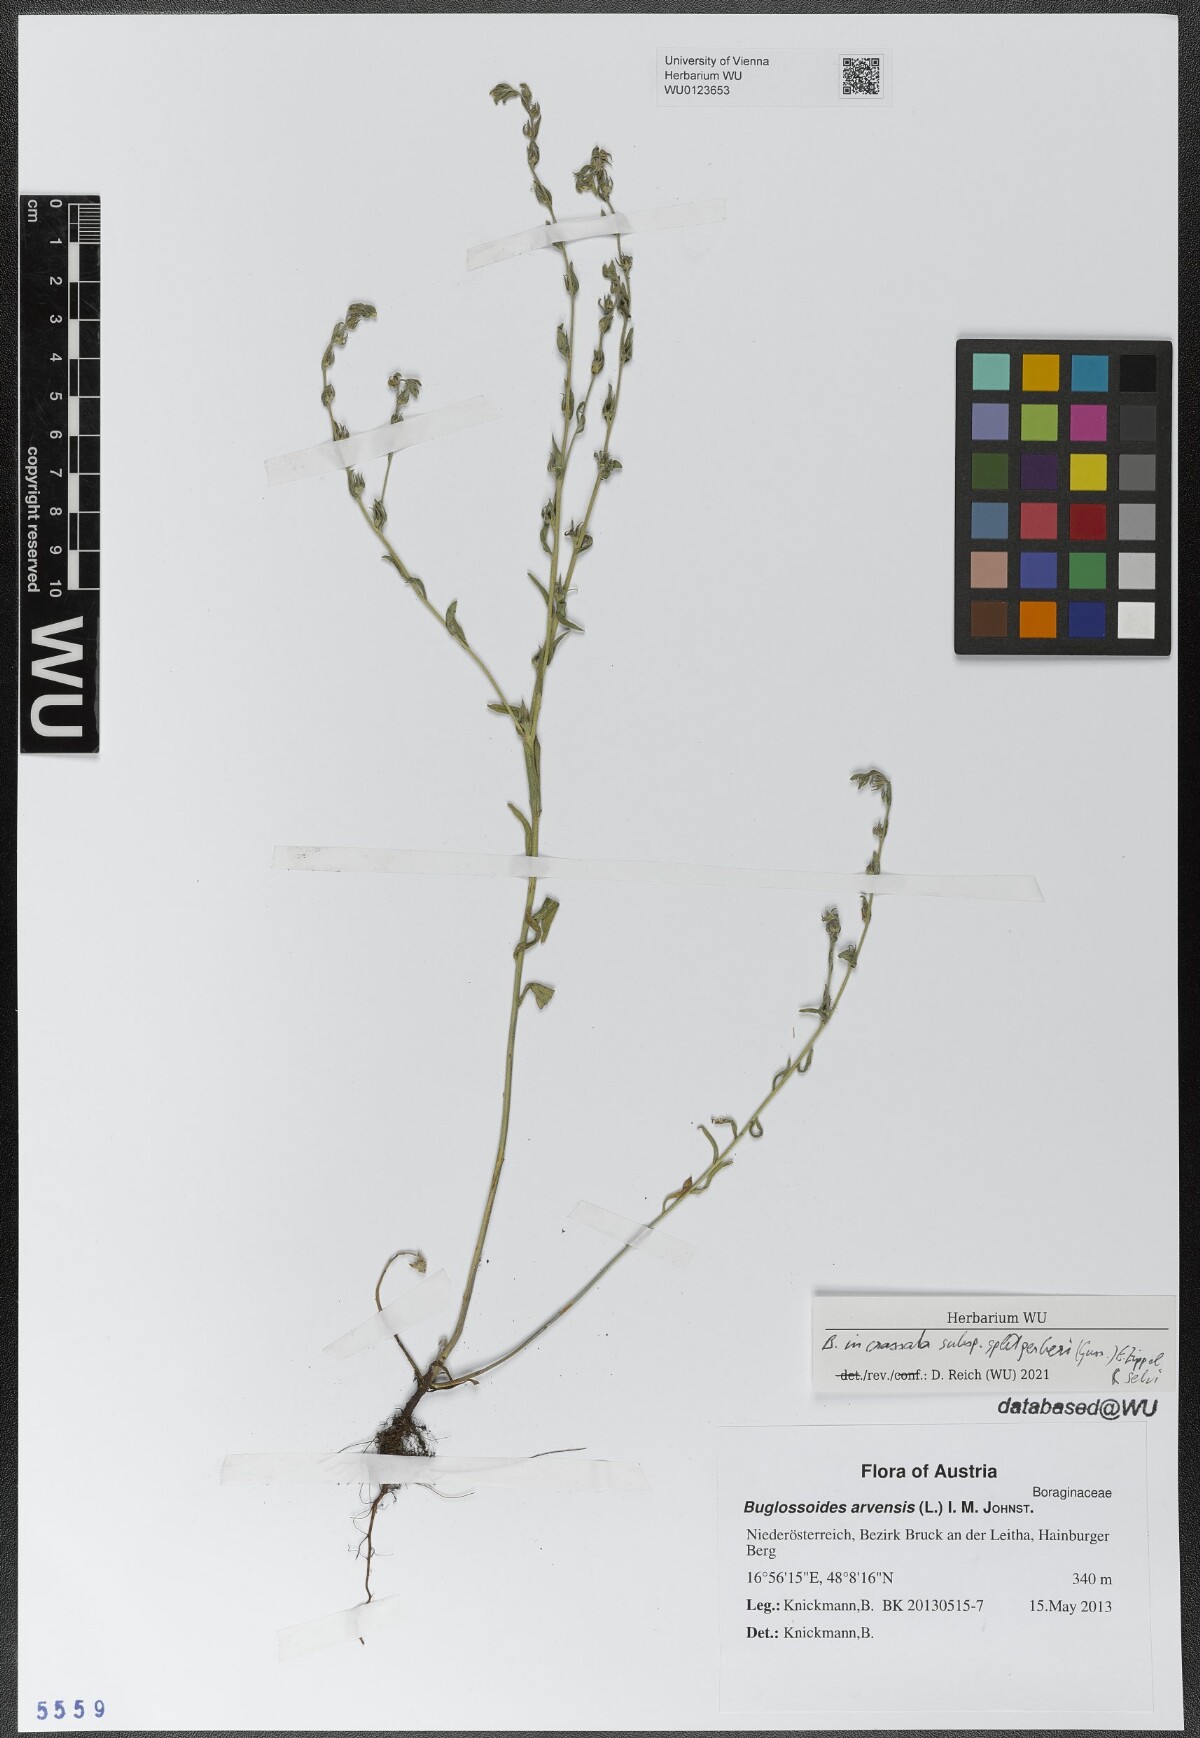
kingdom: Plantae
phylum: Tracheophyta
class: Magnoliopsida
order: Boraginales
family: Boraginaceae
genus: Buglossoides
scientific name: Buglossoides incrassata
